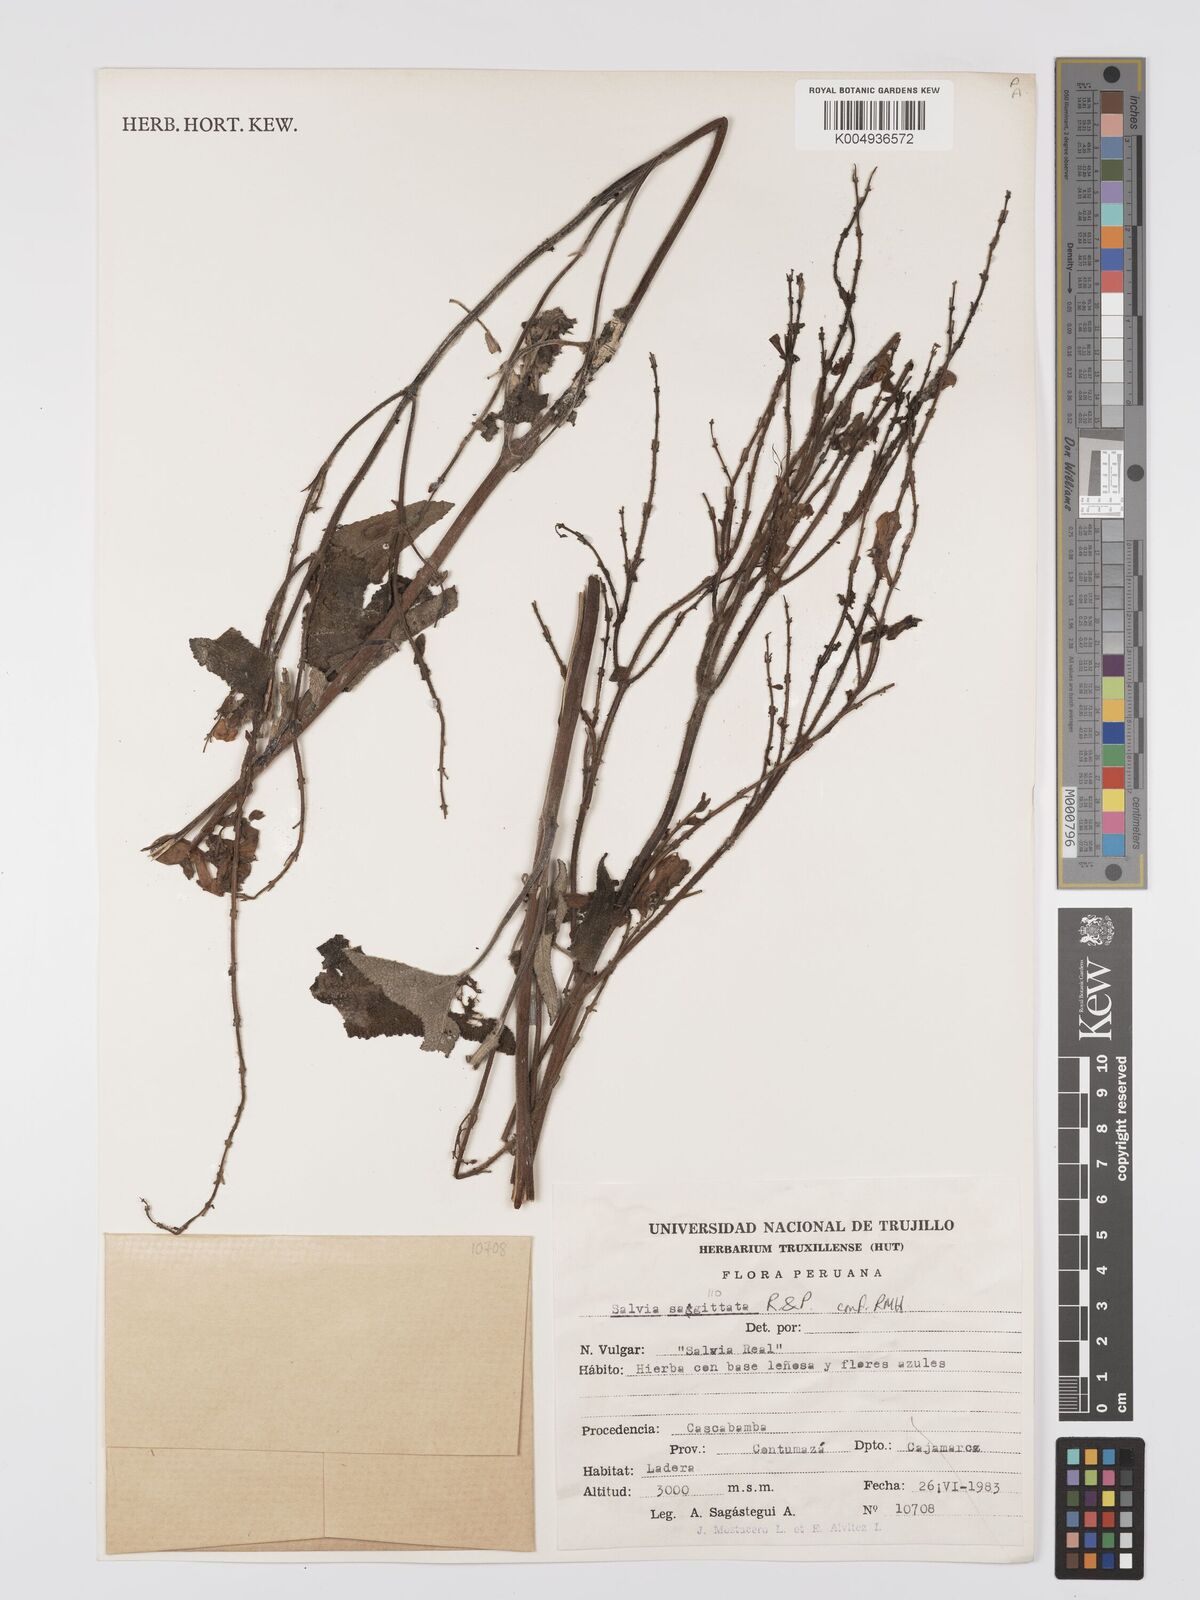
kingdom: Plantae
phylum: Tracheophyta
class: Magnoliopsida
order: Lamiales
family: Lamiaceae
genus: Salvia
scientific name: Salvia sagittata
